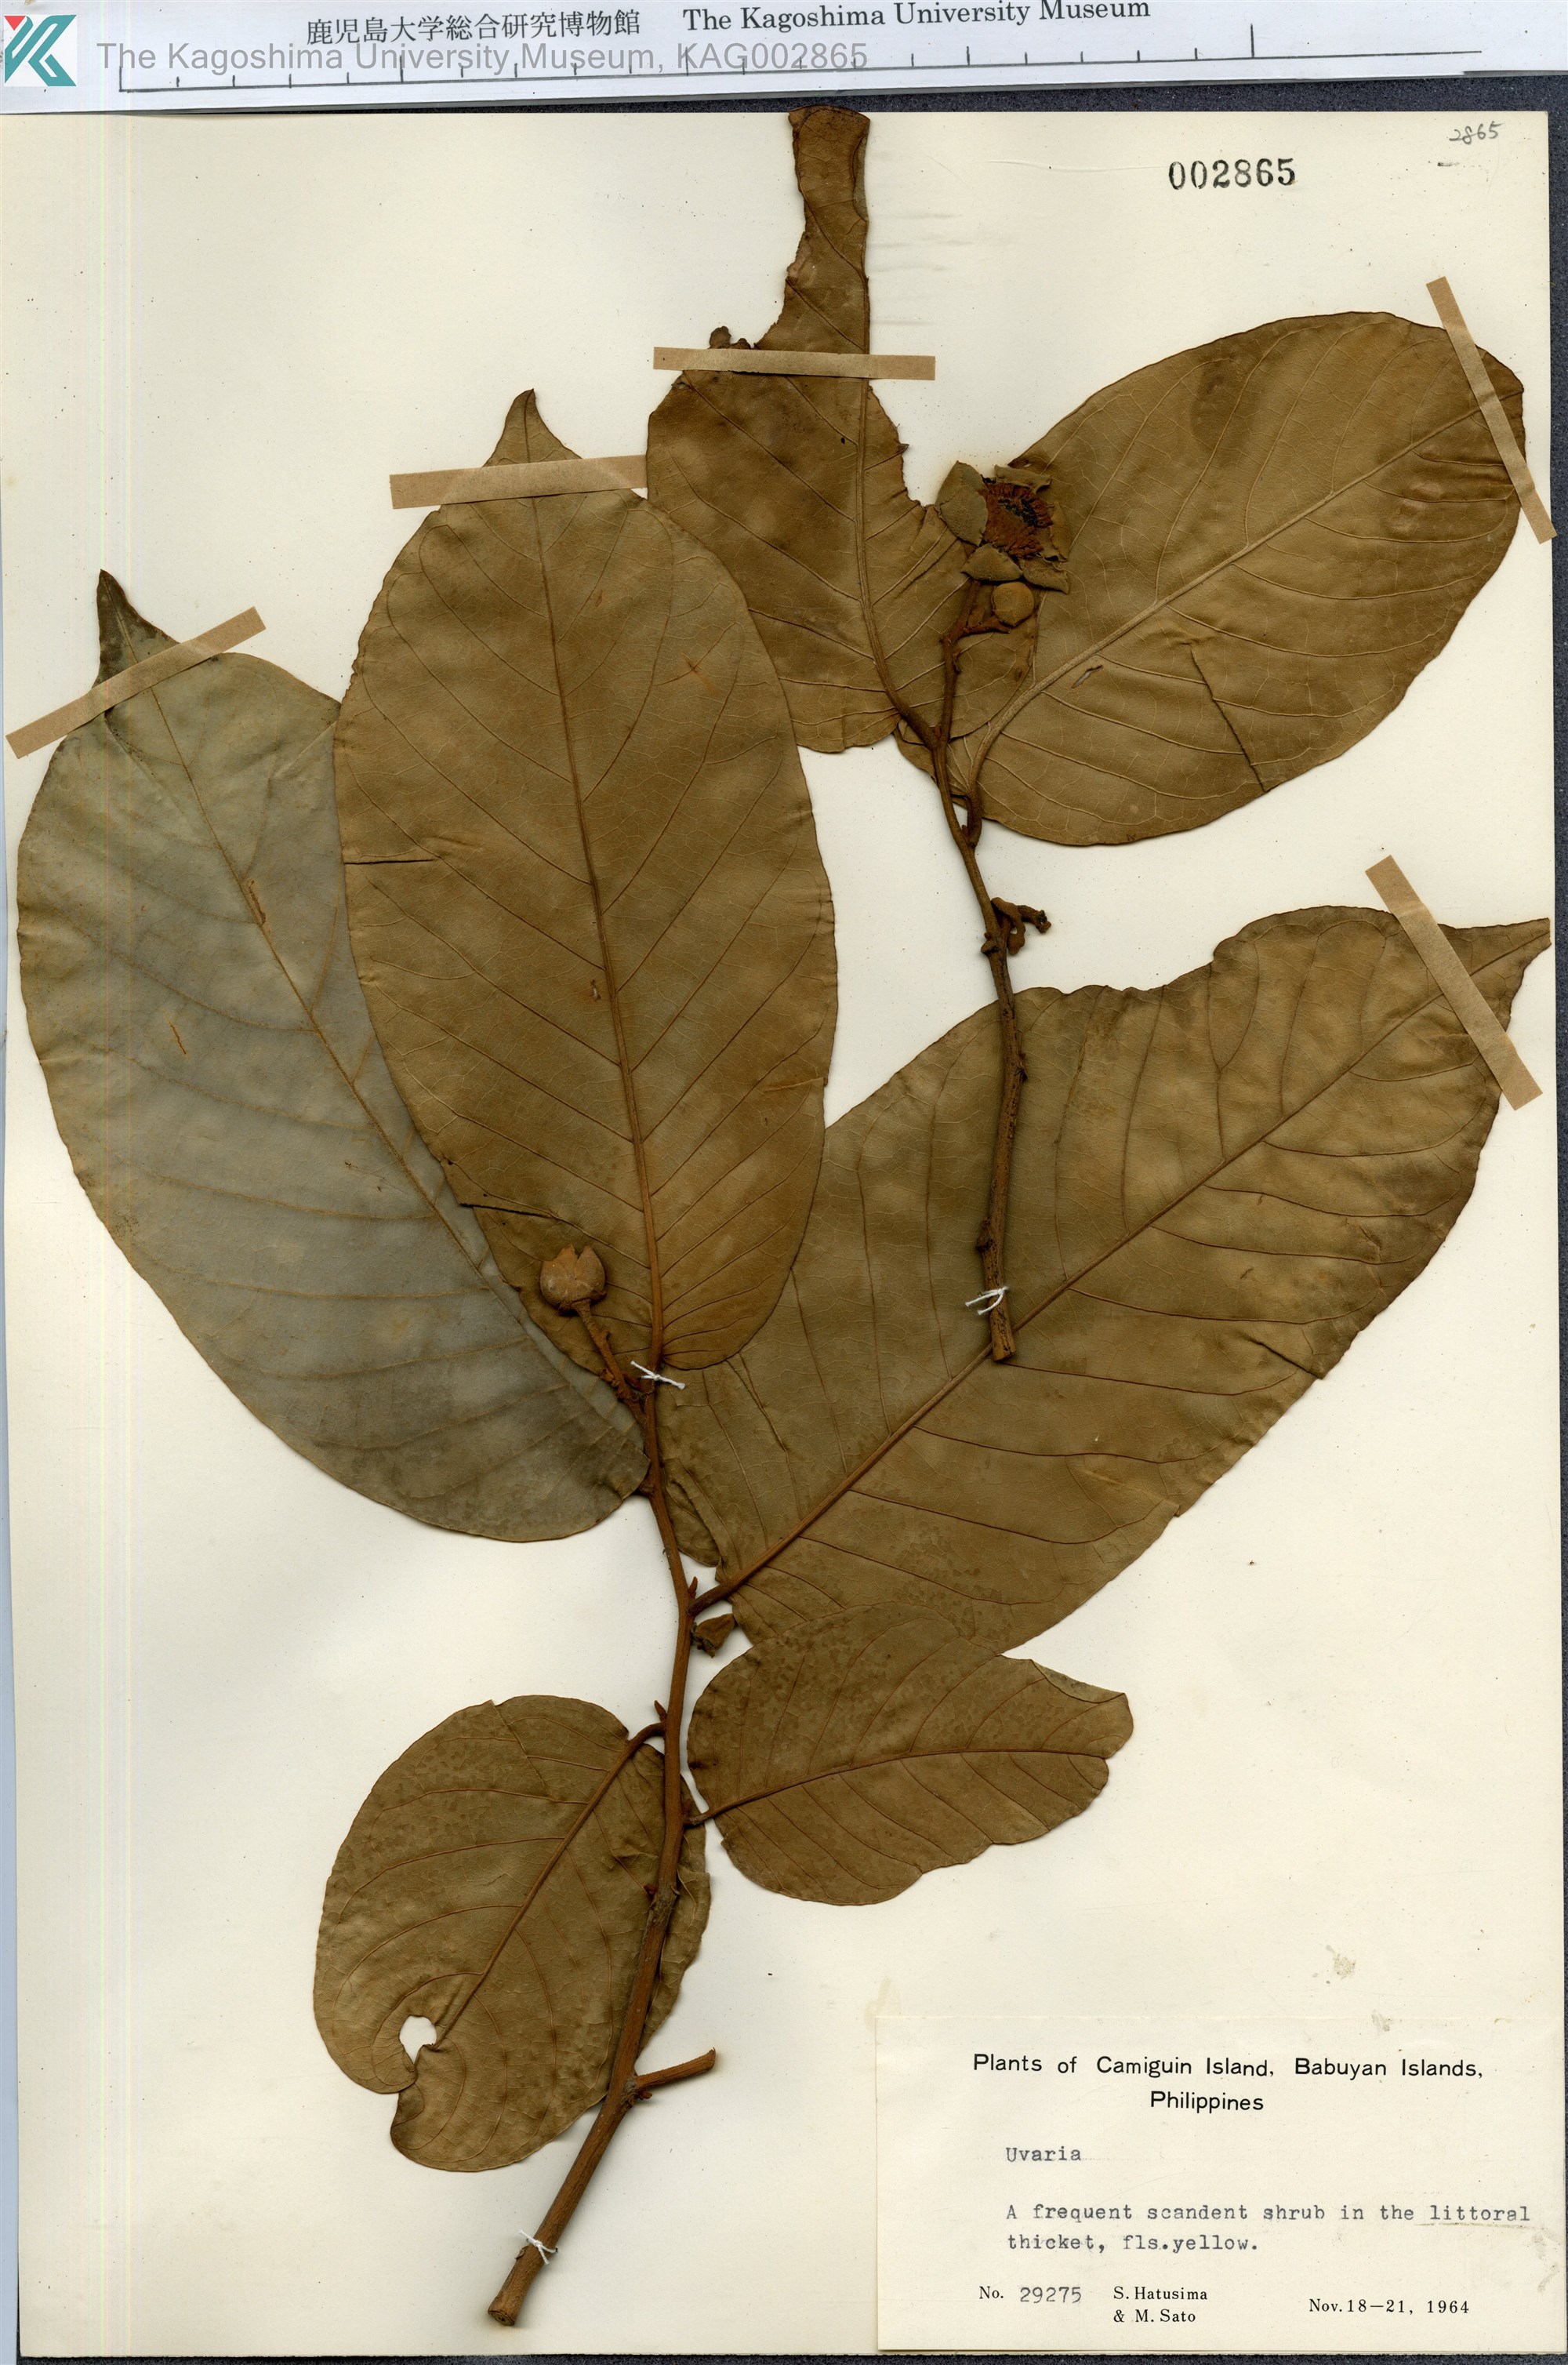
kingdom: Plantae
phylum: Tracheophyta
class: Magnoliopsida
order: Magnoliales
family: Annonaceae
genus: Uvaria
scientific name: Uvaria
